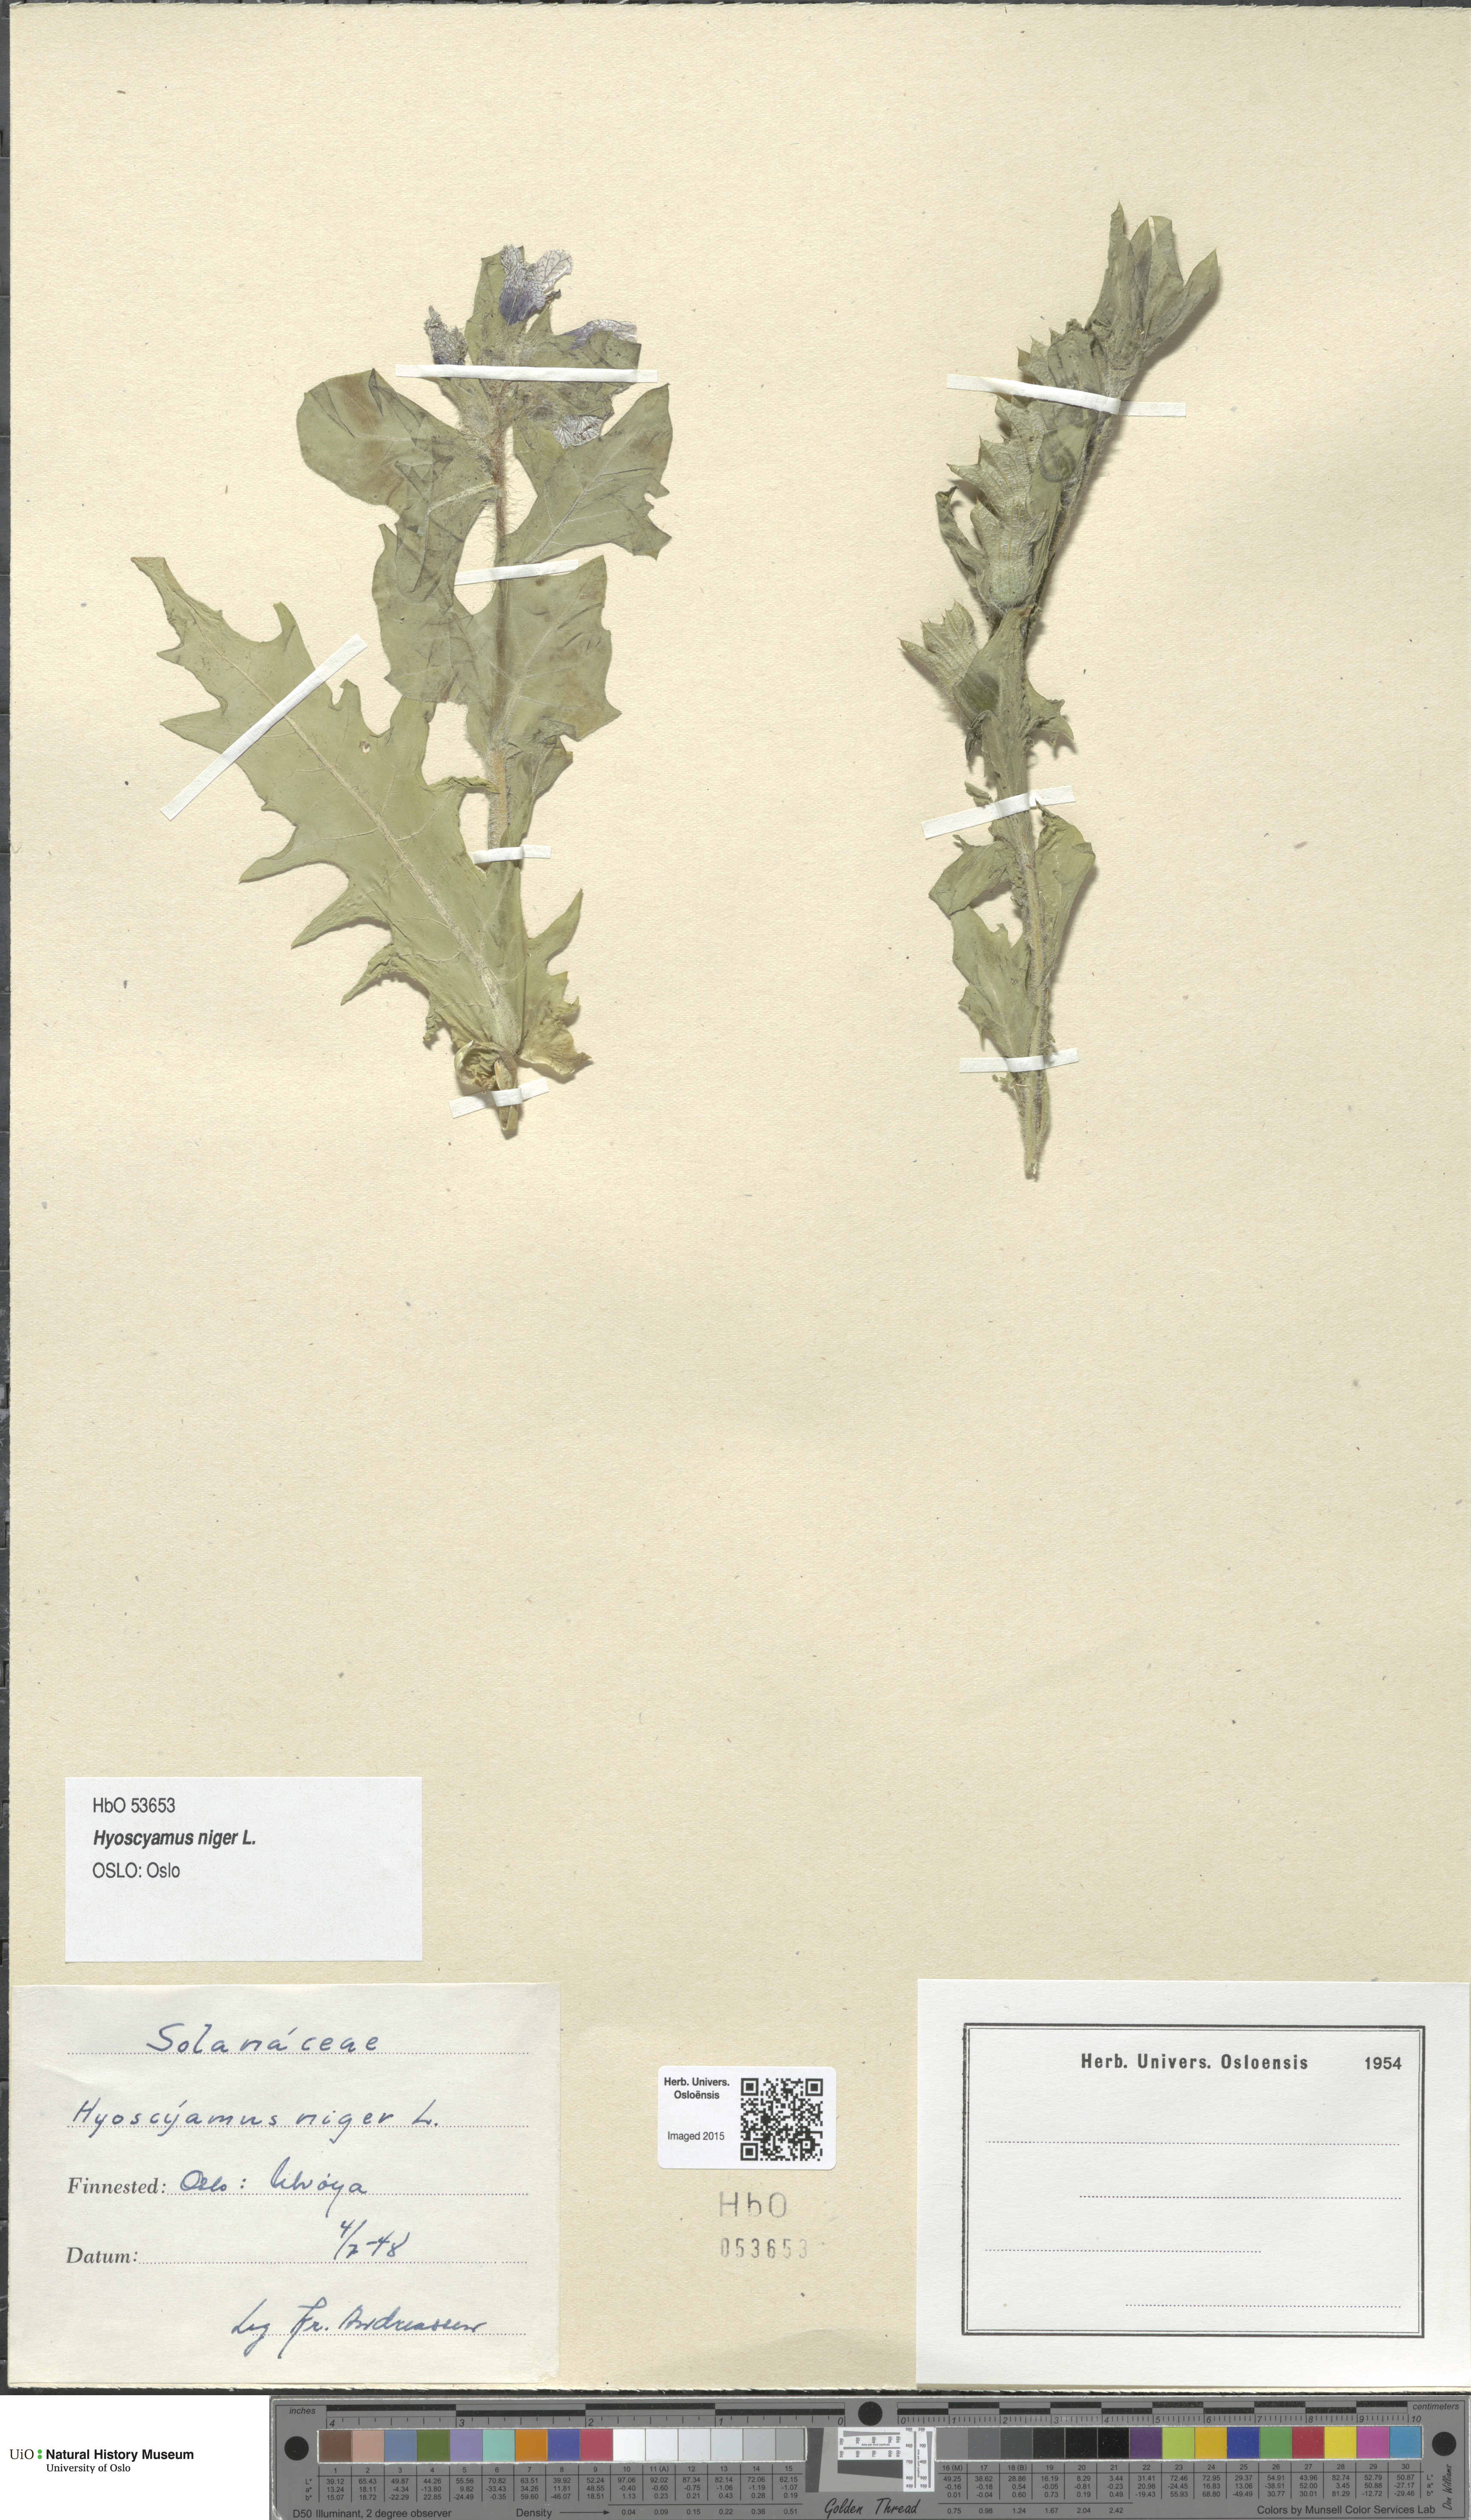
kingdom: Plantae
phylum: Tracheophyta
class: Magnoliopsida
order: Solanales
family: Solanaceae
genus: Hyoscyamus
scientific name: Hyoscyamus niger
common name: Henbane
